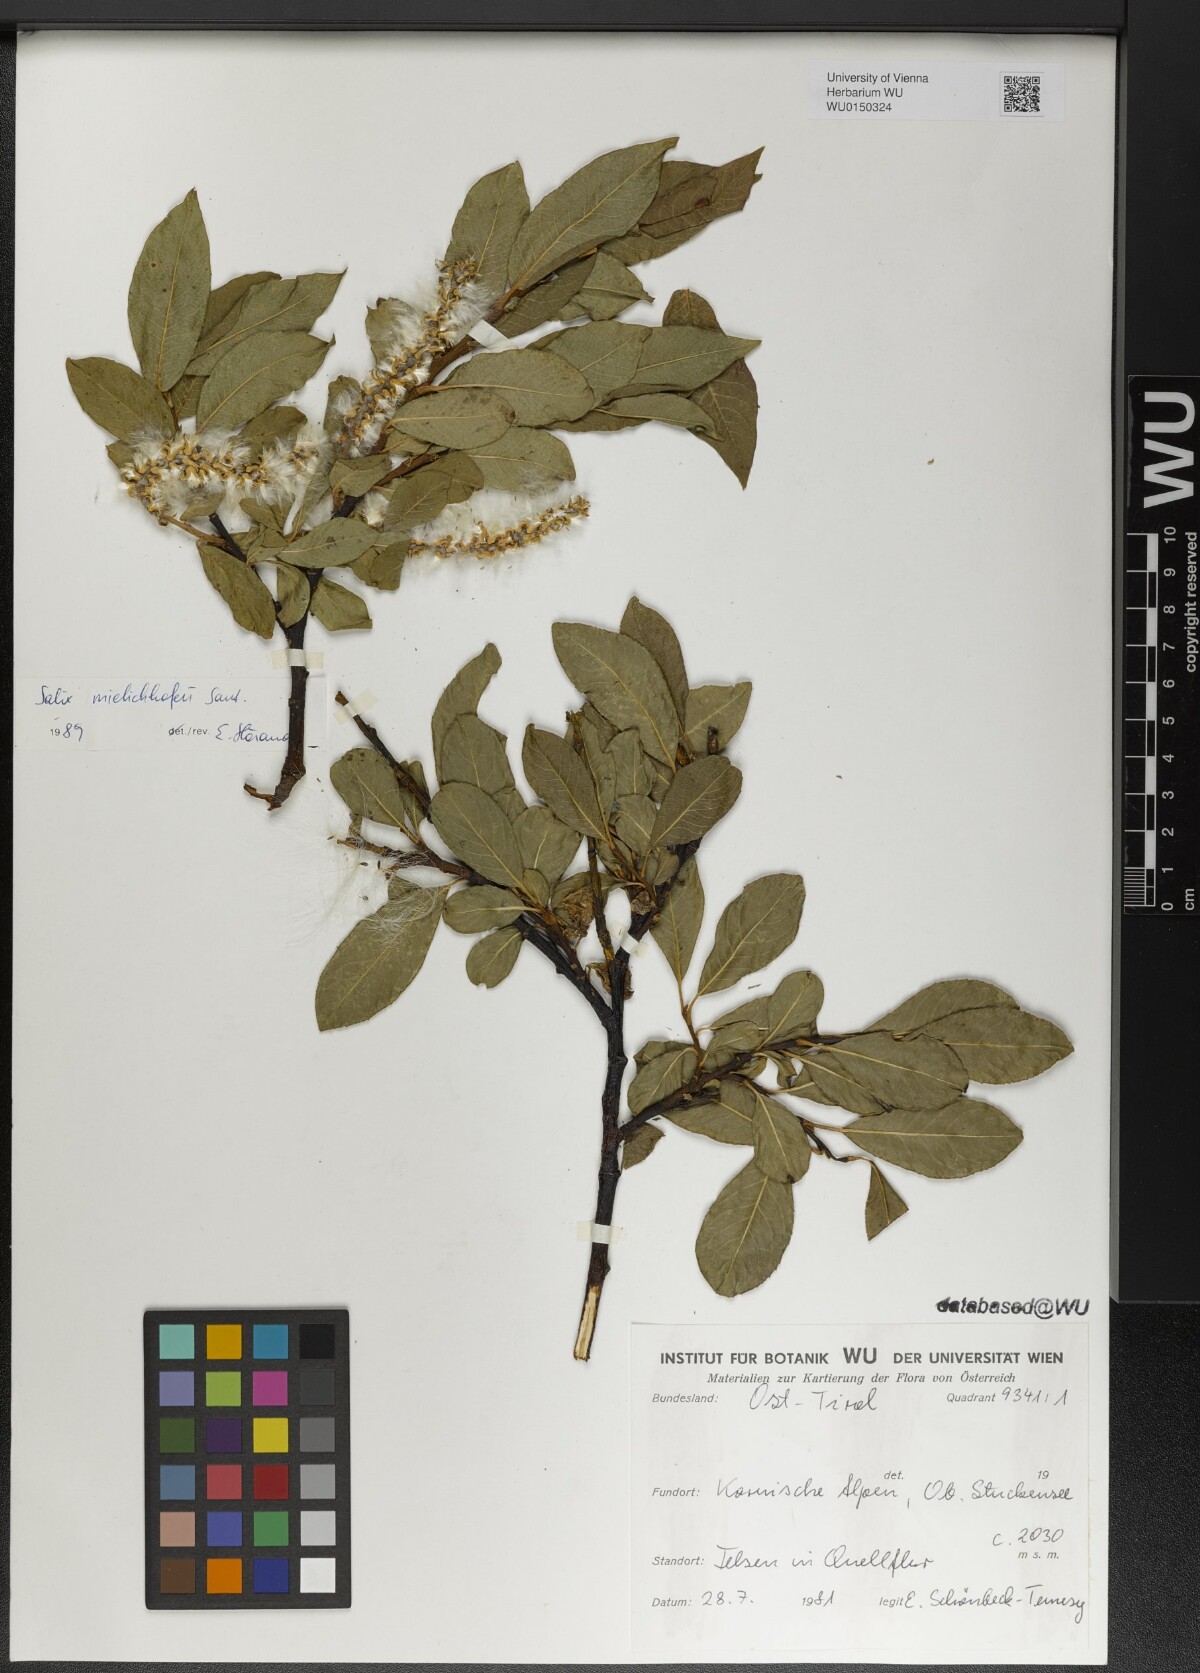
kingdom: Plantae
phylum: Tracheophyta
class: Magnoliopsida
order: Malpighiales
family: Salicaceae
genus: Salix
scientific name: Salix mielichhoferi
